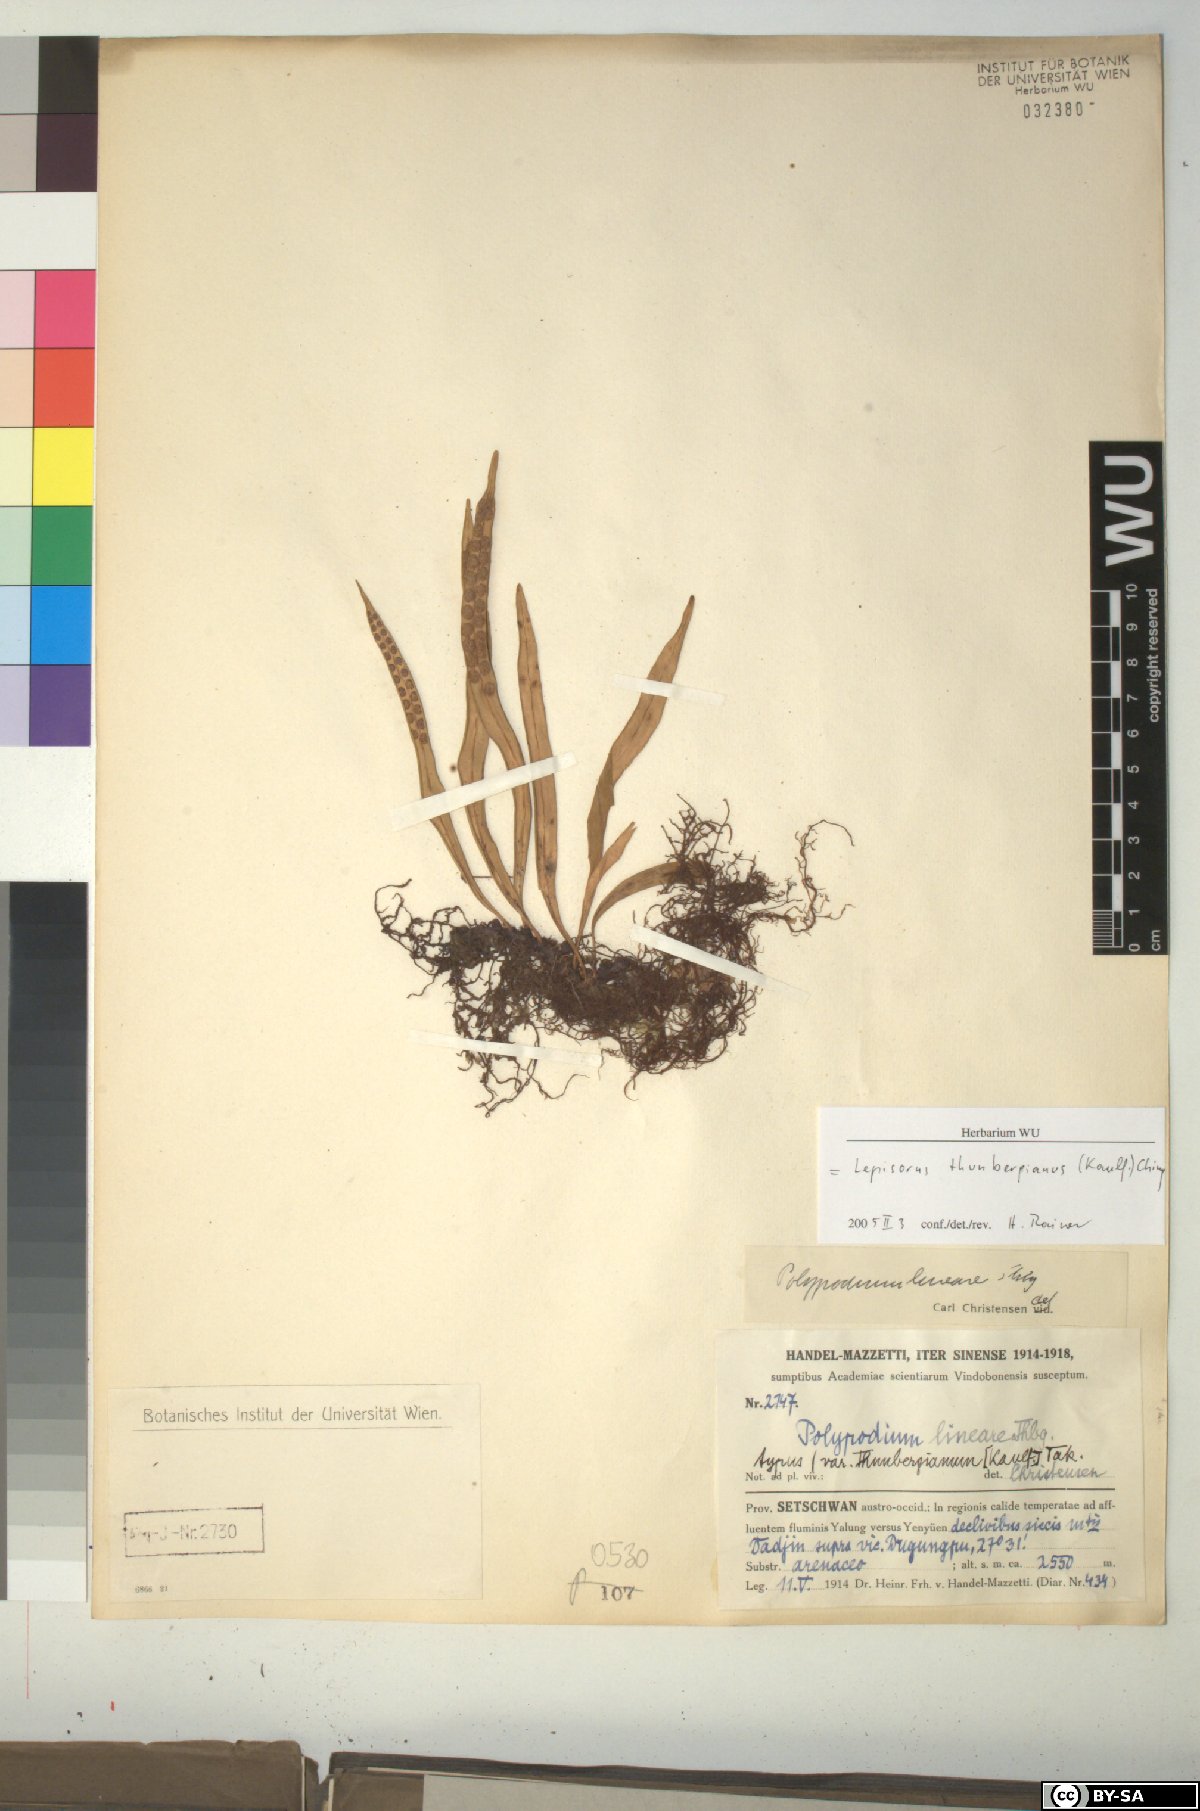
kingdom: Plantae
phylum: Tracheophyta
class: Polypodiopsida
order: Polypodiales
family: Polypodiaceae
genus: Lepisorus
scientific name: Lepisorus thunbergianus
